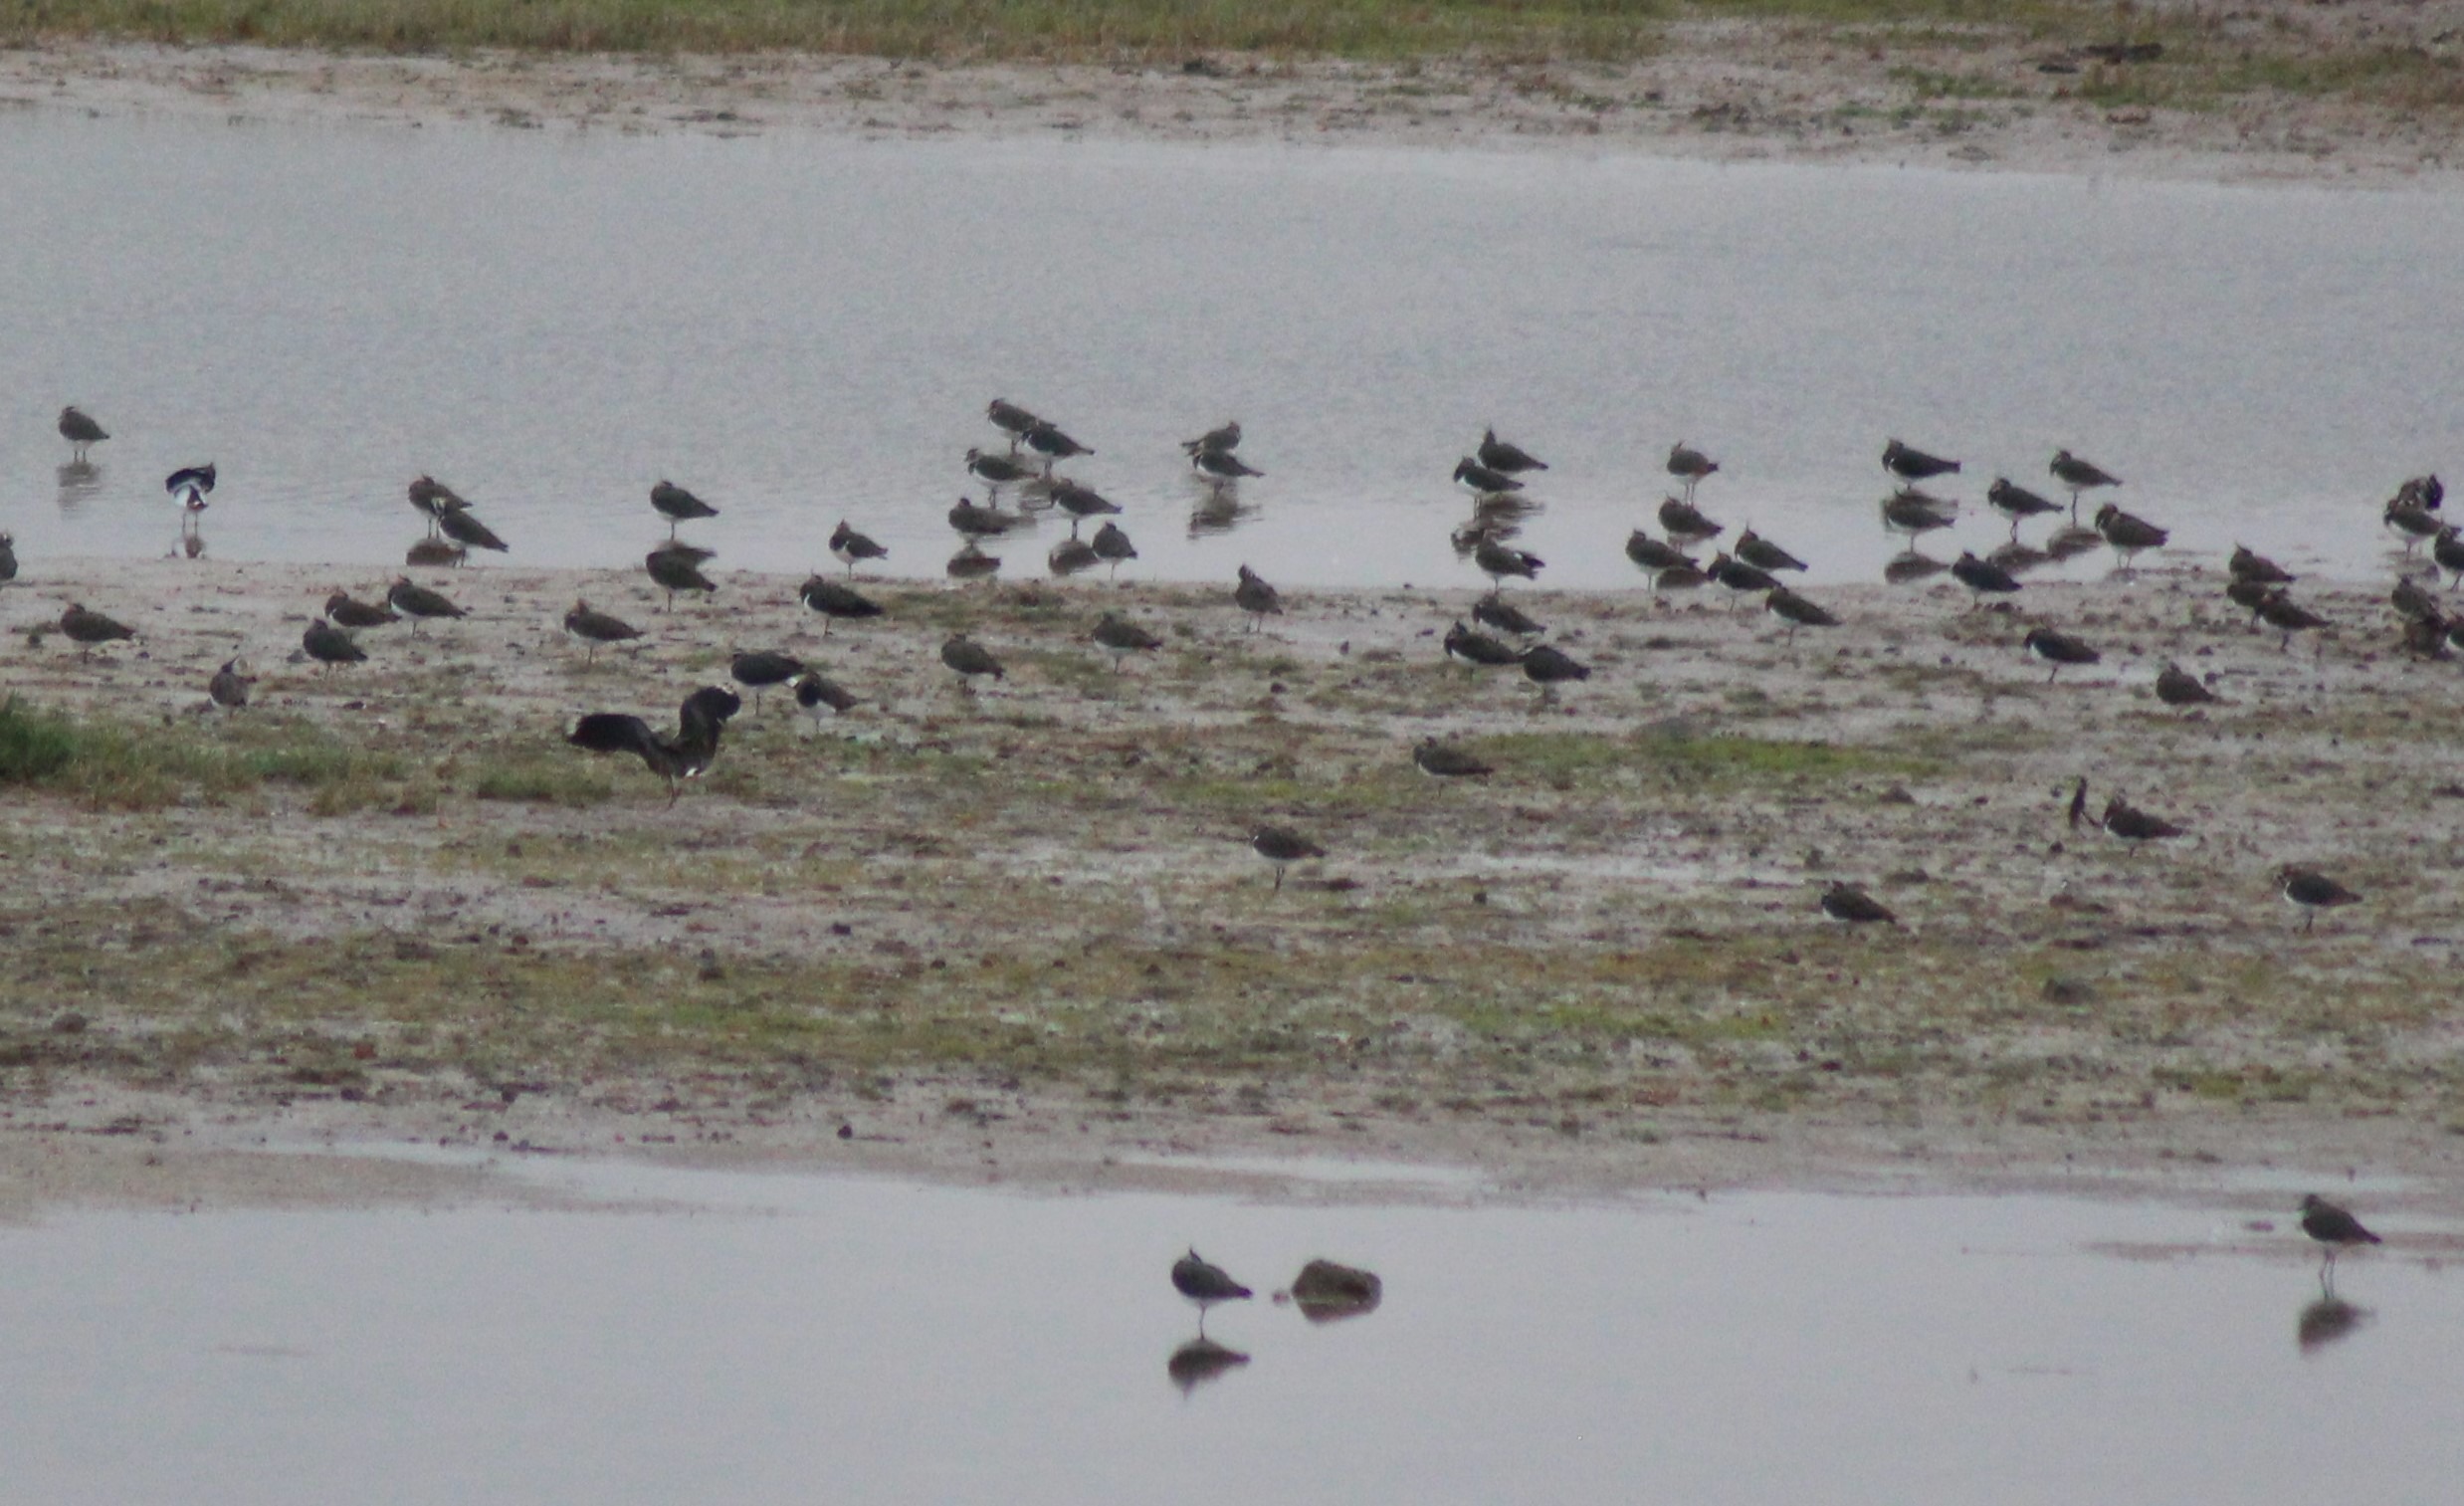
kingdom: Animalia
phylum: Chordata
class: Aves
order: Charadriiformes
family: Charadriidae
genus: Vanellus
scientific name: Vanellus vanellus
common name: Vibe
